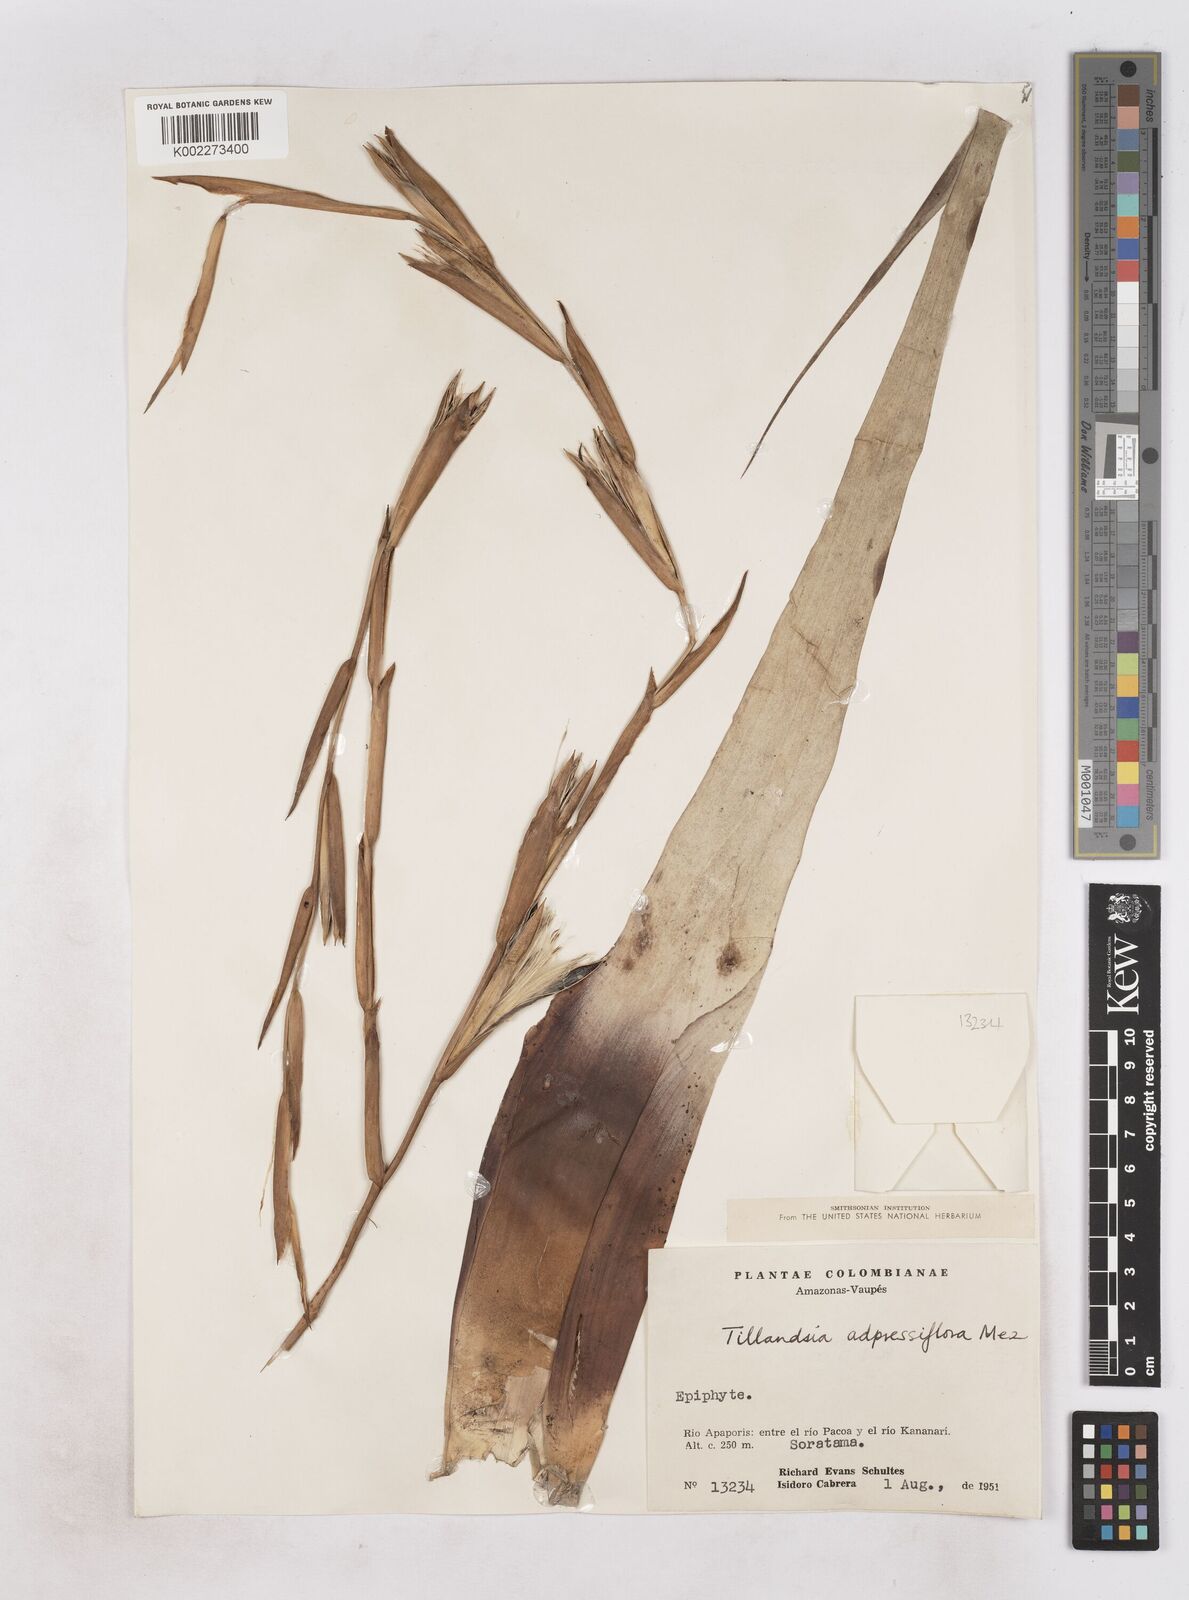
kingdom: Plantae
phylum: Tracheophyta
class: Liliopsida
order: Poales
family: Bromeliaceae
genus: Tillandsia
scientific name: Tillandsia adpressiflora
